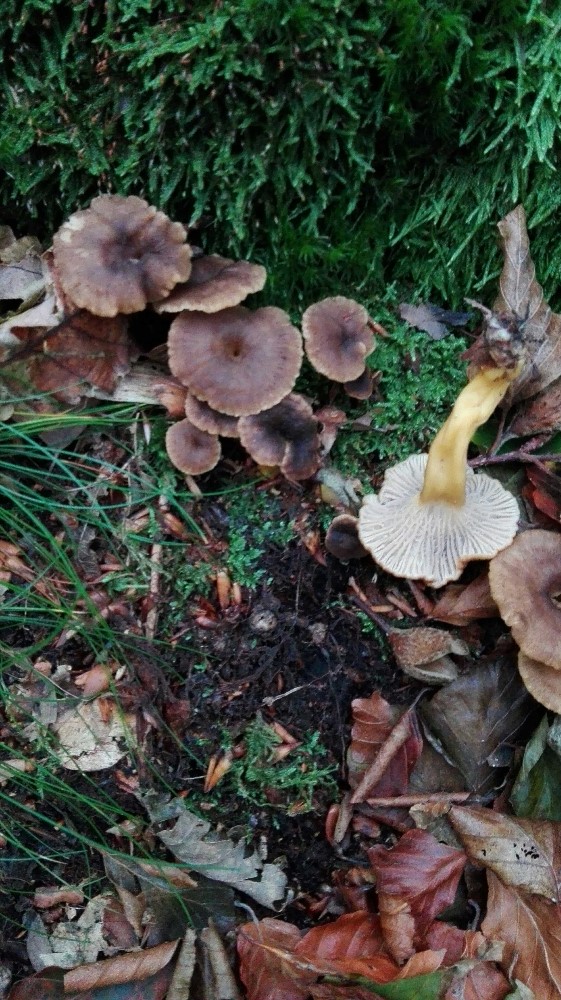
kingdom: Fungi
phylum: Basidiomycota
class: Agaricomycetes
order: Cantharellales
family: Hydnaceae
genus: Craterellus
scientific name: Craterellus tubaeformis
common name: tragt-kantarel
